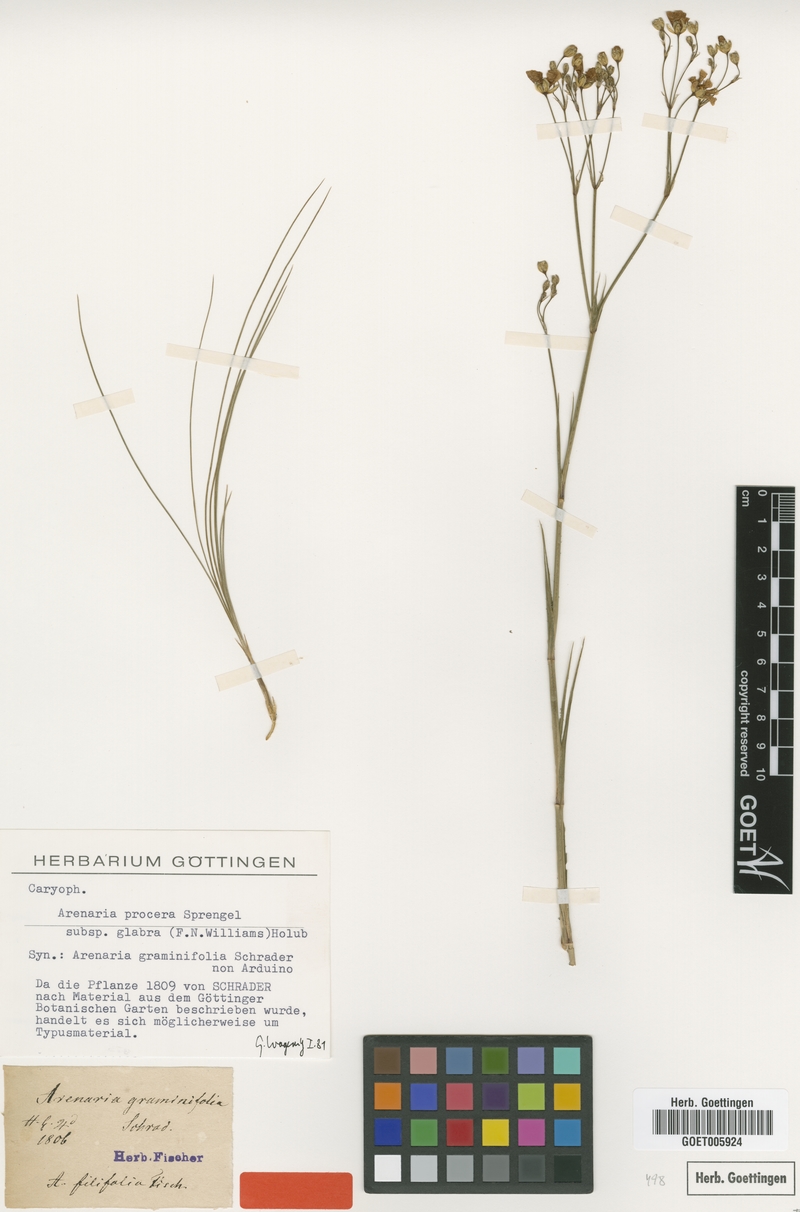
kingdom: Plantae
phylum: Tracheophyta
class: Magnoliopsida
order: Caryophyllales
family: Caryophyllaceae
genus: Eremogone
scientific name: Eremogone saxatilis
